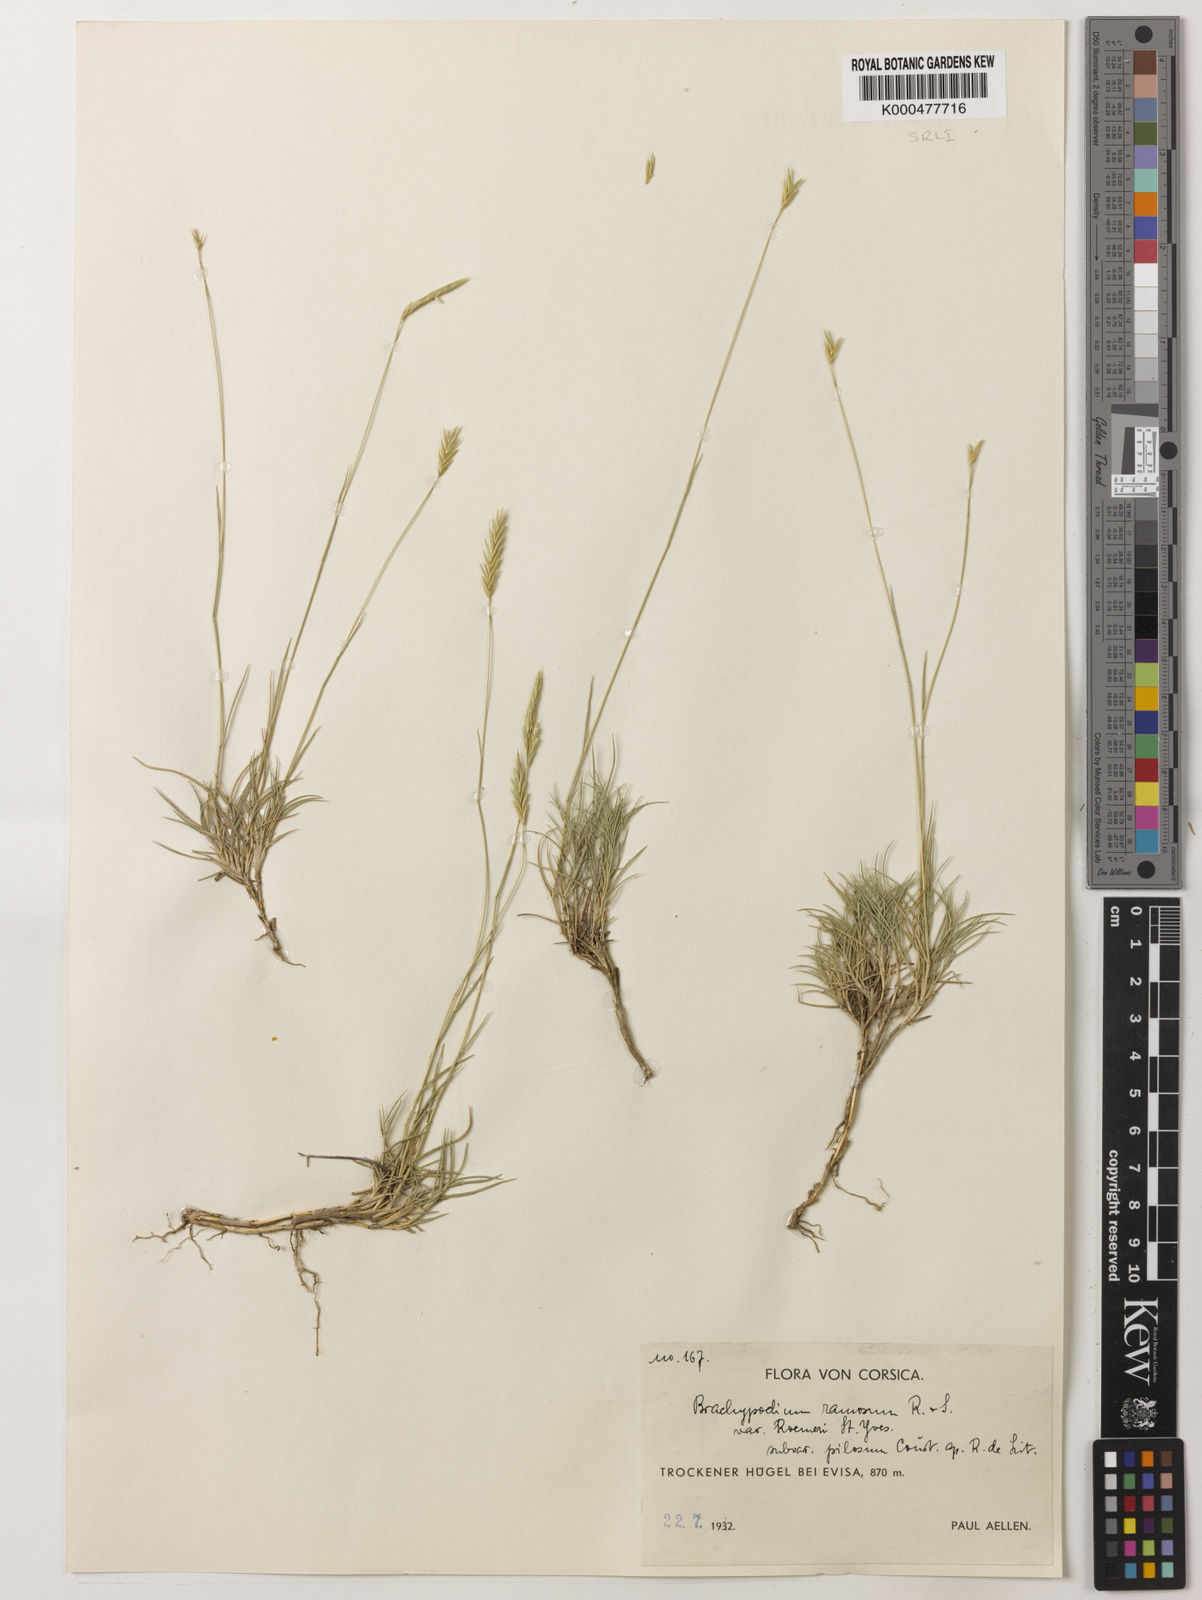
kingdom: Plantae
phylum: Tracheophyta
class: Liliopsida
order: Poales
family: Poaceae
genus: Brachypodium
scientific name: Brachypodium retusum
